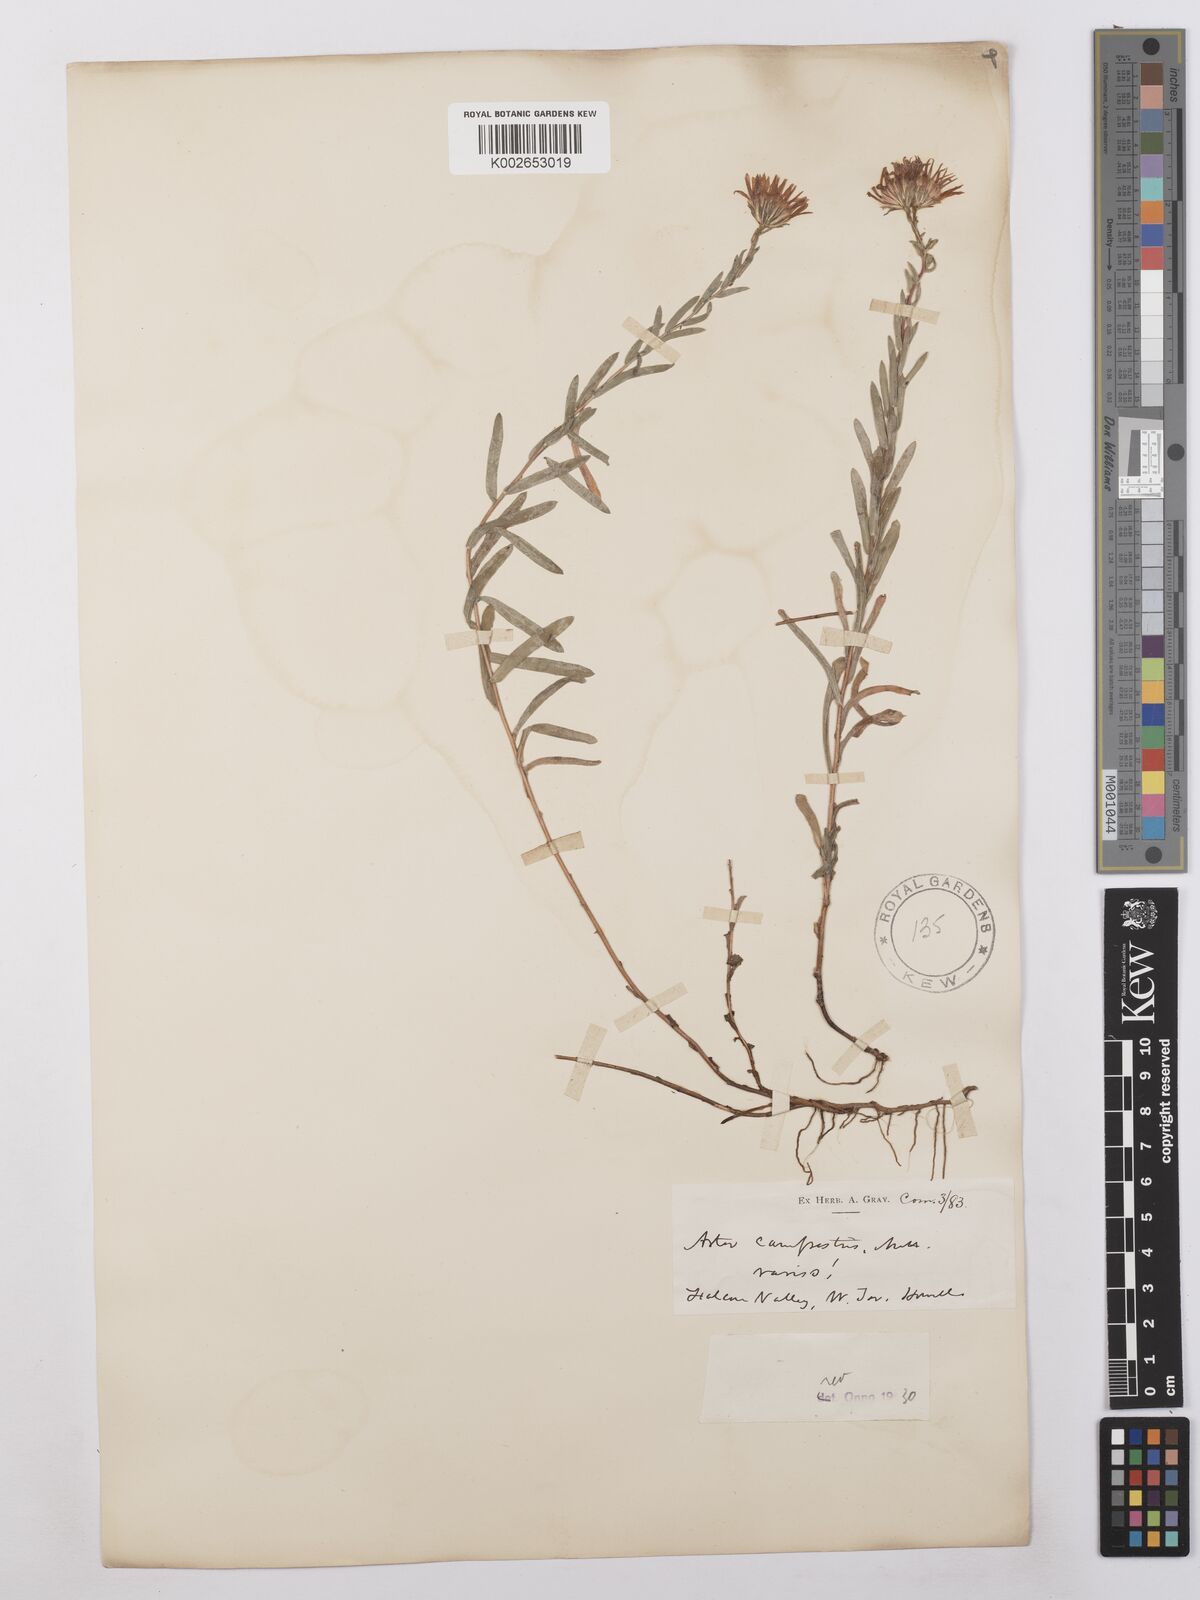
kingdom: Plantae
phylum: Tracheophyta
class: Magnoliopsida
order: Asterales
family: Asteraceae
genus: Symphyotrichum
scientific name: Symphyotrichum campestre
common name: Meadow aster
